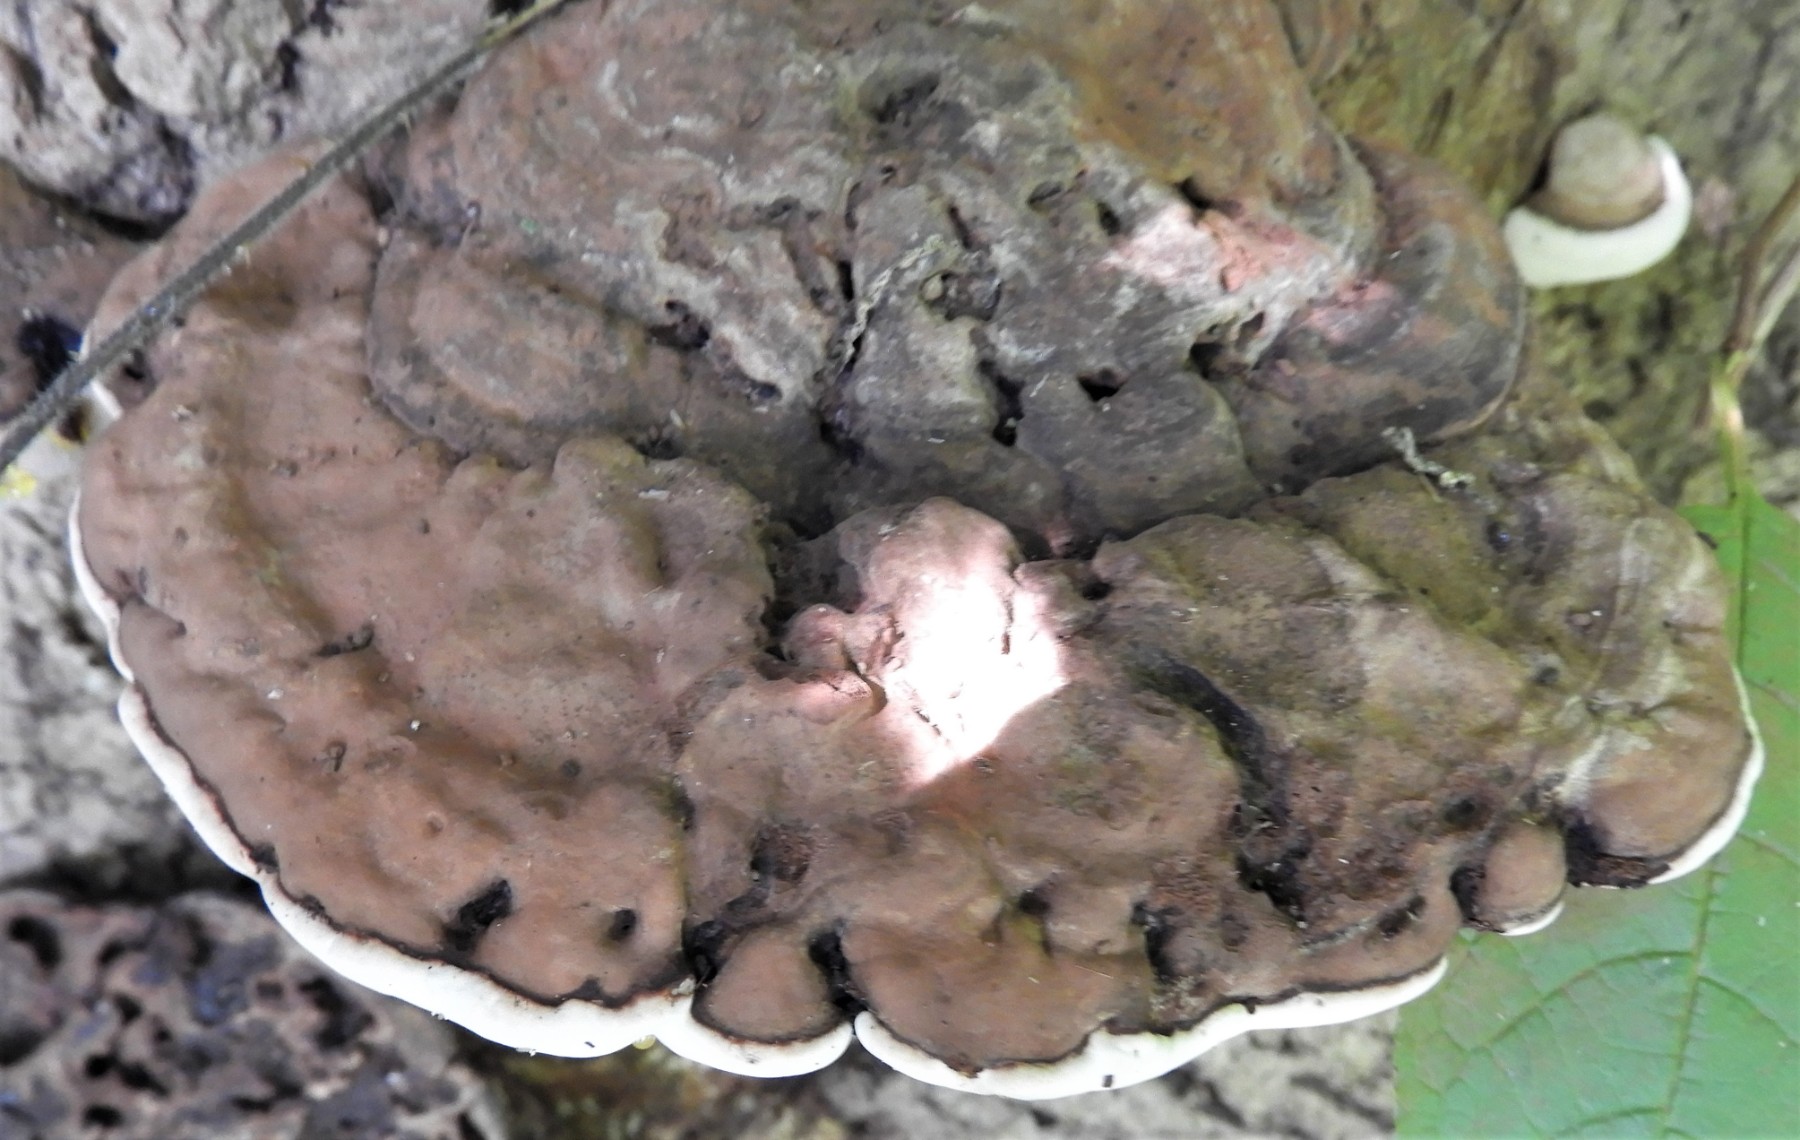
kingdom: Fungi
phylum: Basidiomycota
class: Agaricomycetes
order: Polyporales
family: Polyporaceae
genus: Ganoderma
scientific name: Ganoderma applanatum
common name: flad lakporesvamp
